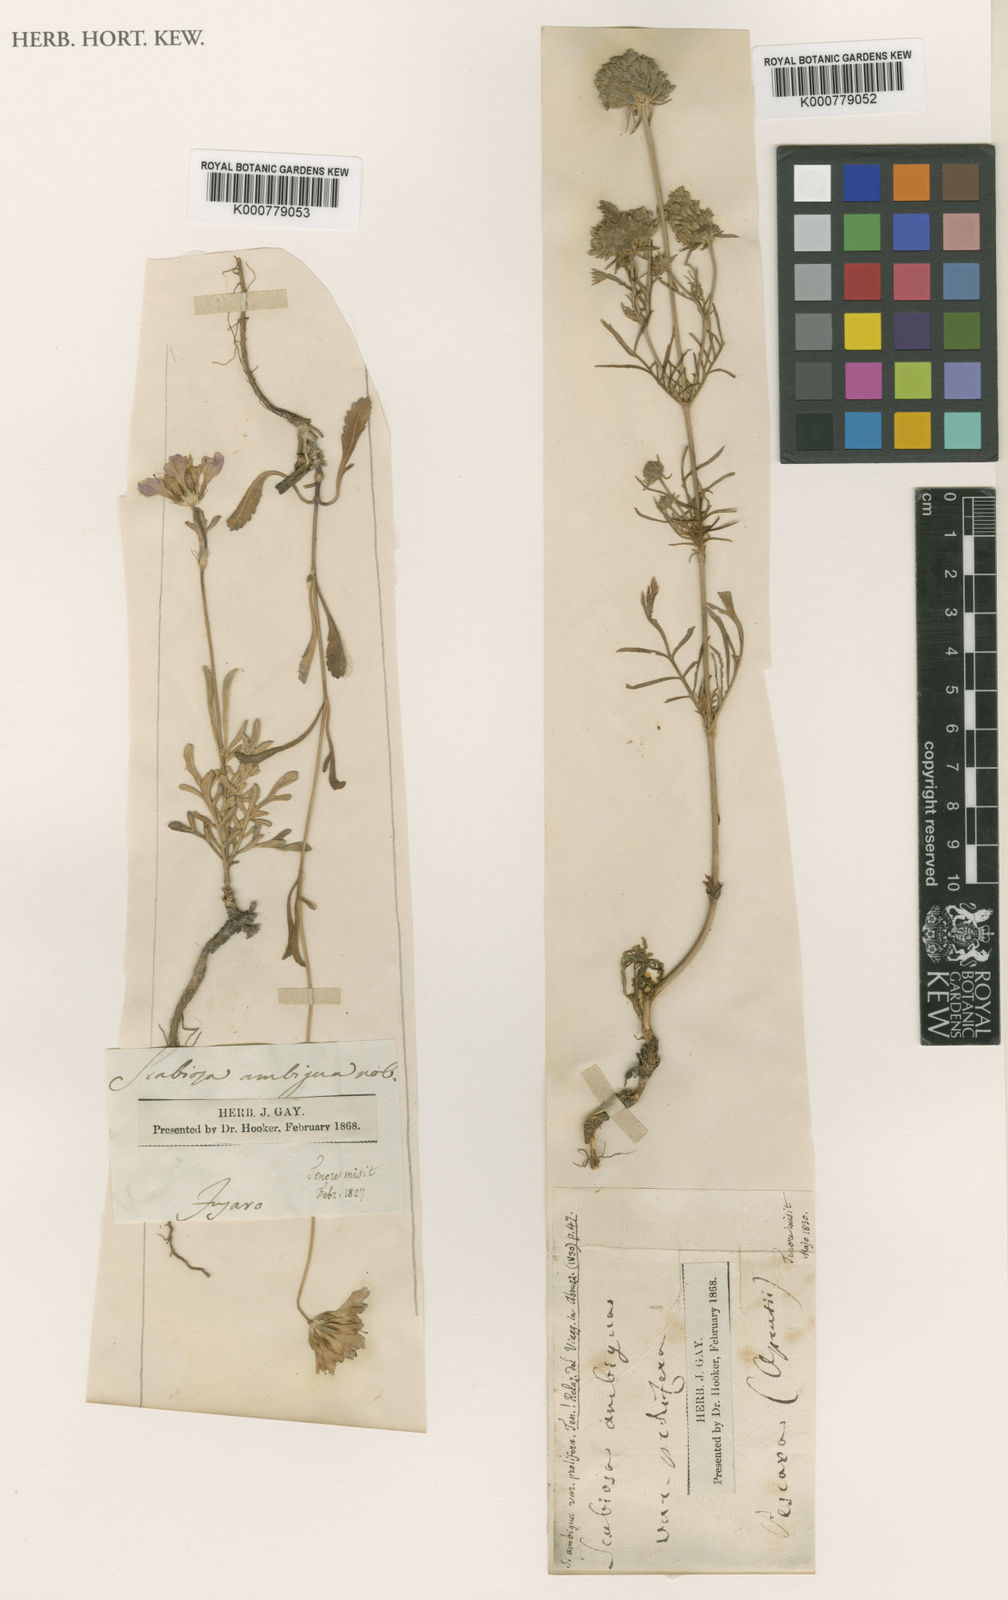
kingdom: Plantae
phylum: Tracheophyta
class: Magnoliopsida
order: Dipsacales
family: Caprifoliaceae
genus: Sixalix
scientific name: Sixalix atropurpurea
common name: Sweet scabious
